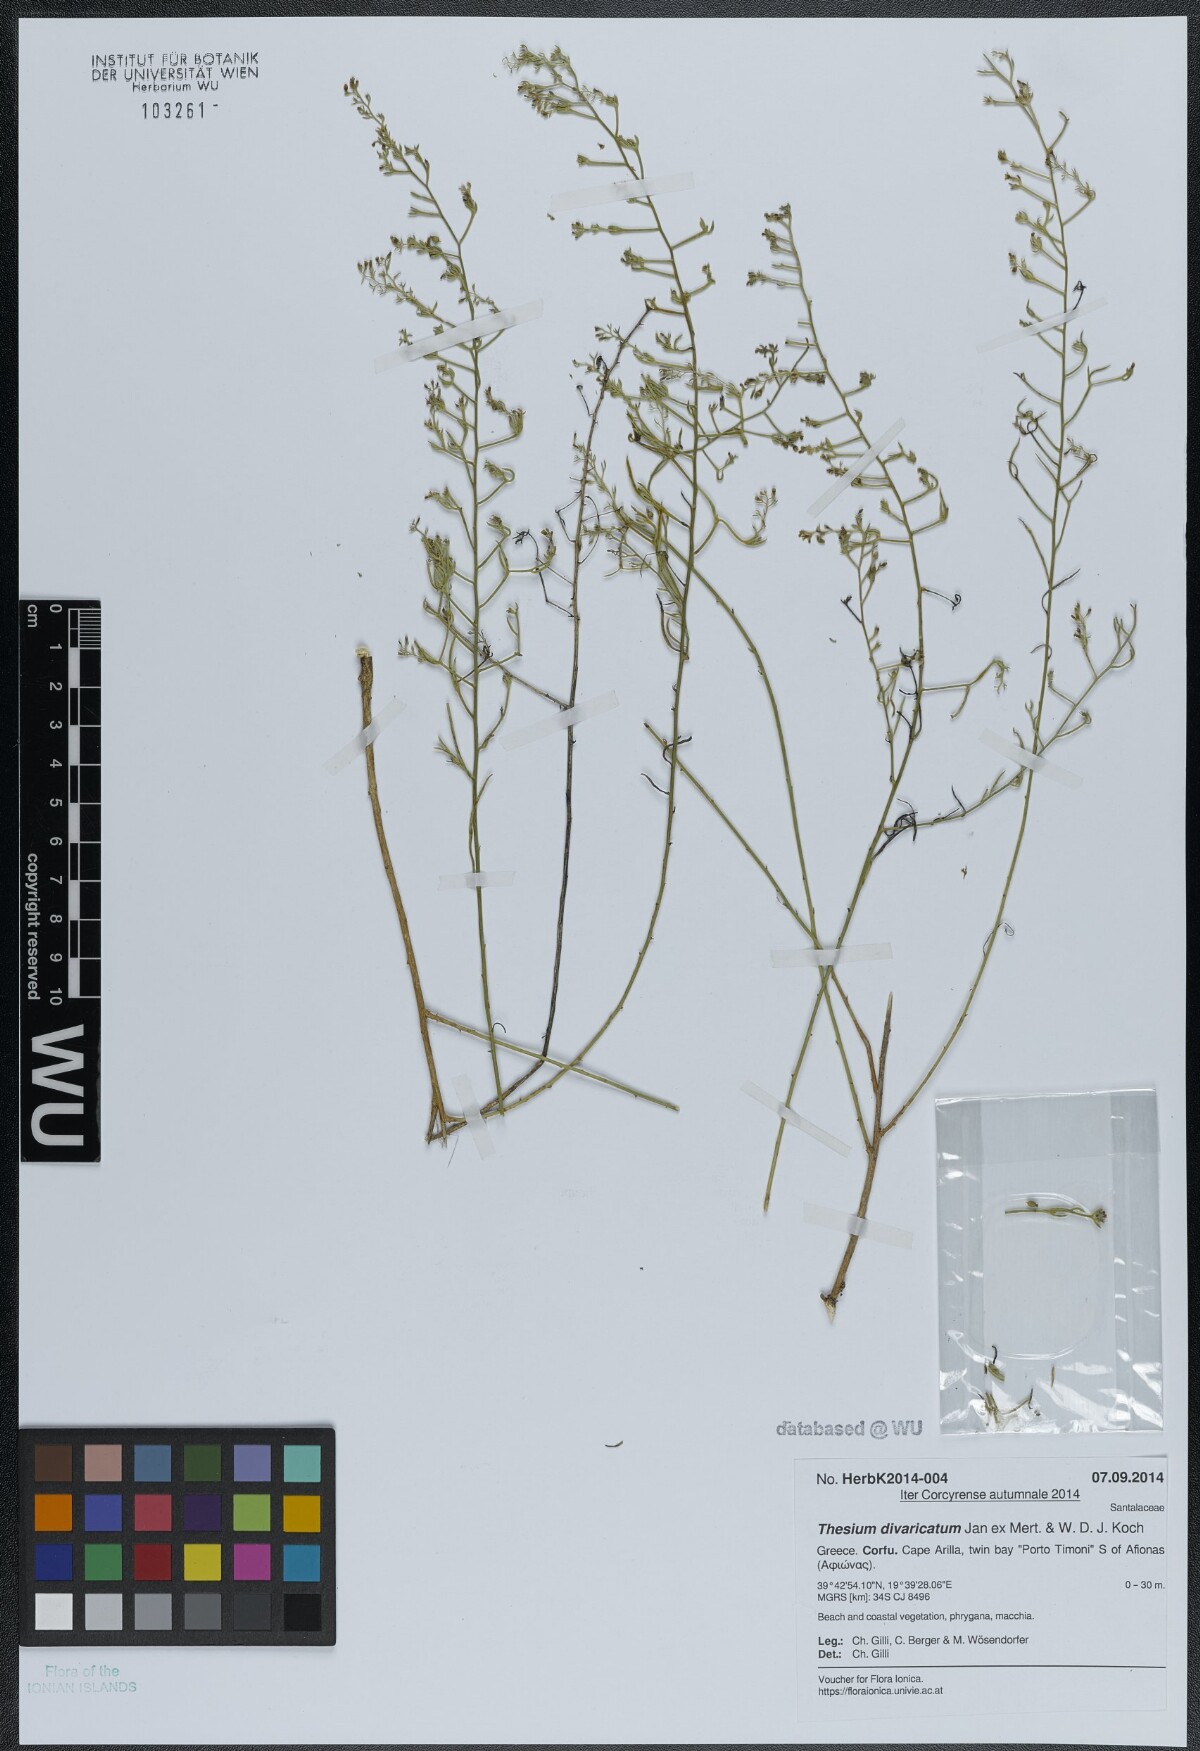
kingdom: Plantae
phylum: Tracheophyta
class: Magnoliopsida
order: Santalales
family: Thesiaceae
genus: Thesium
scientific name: Thesium divaricatum
